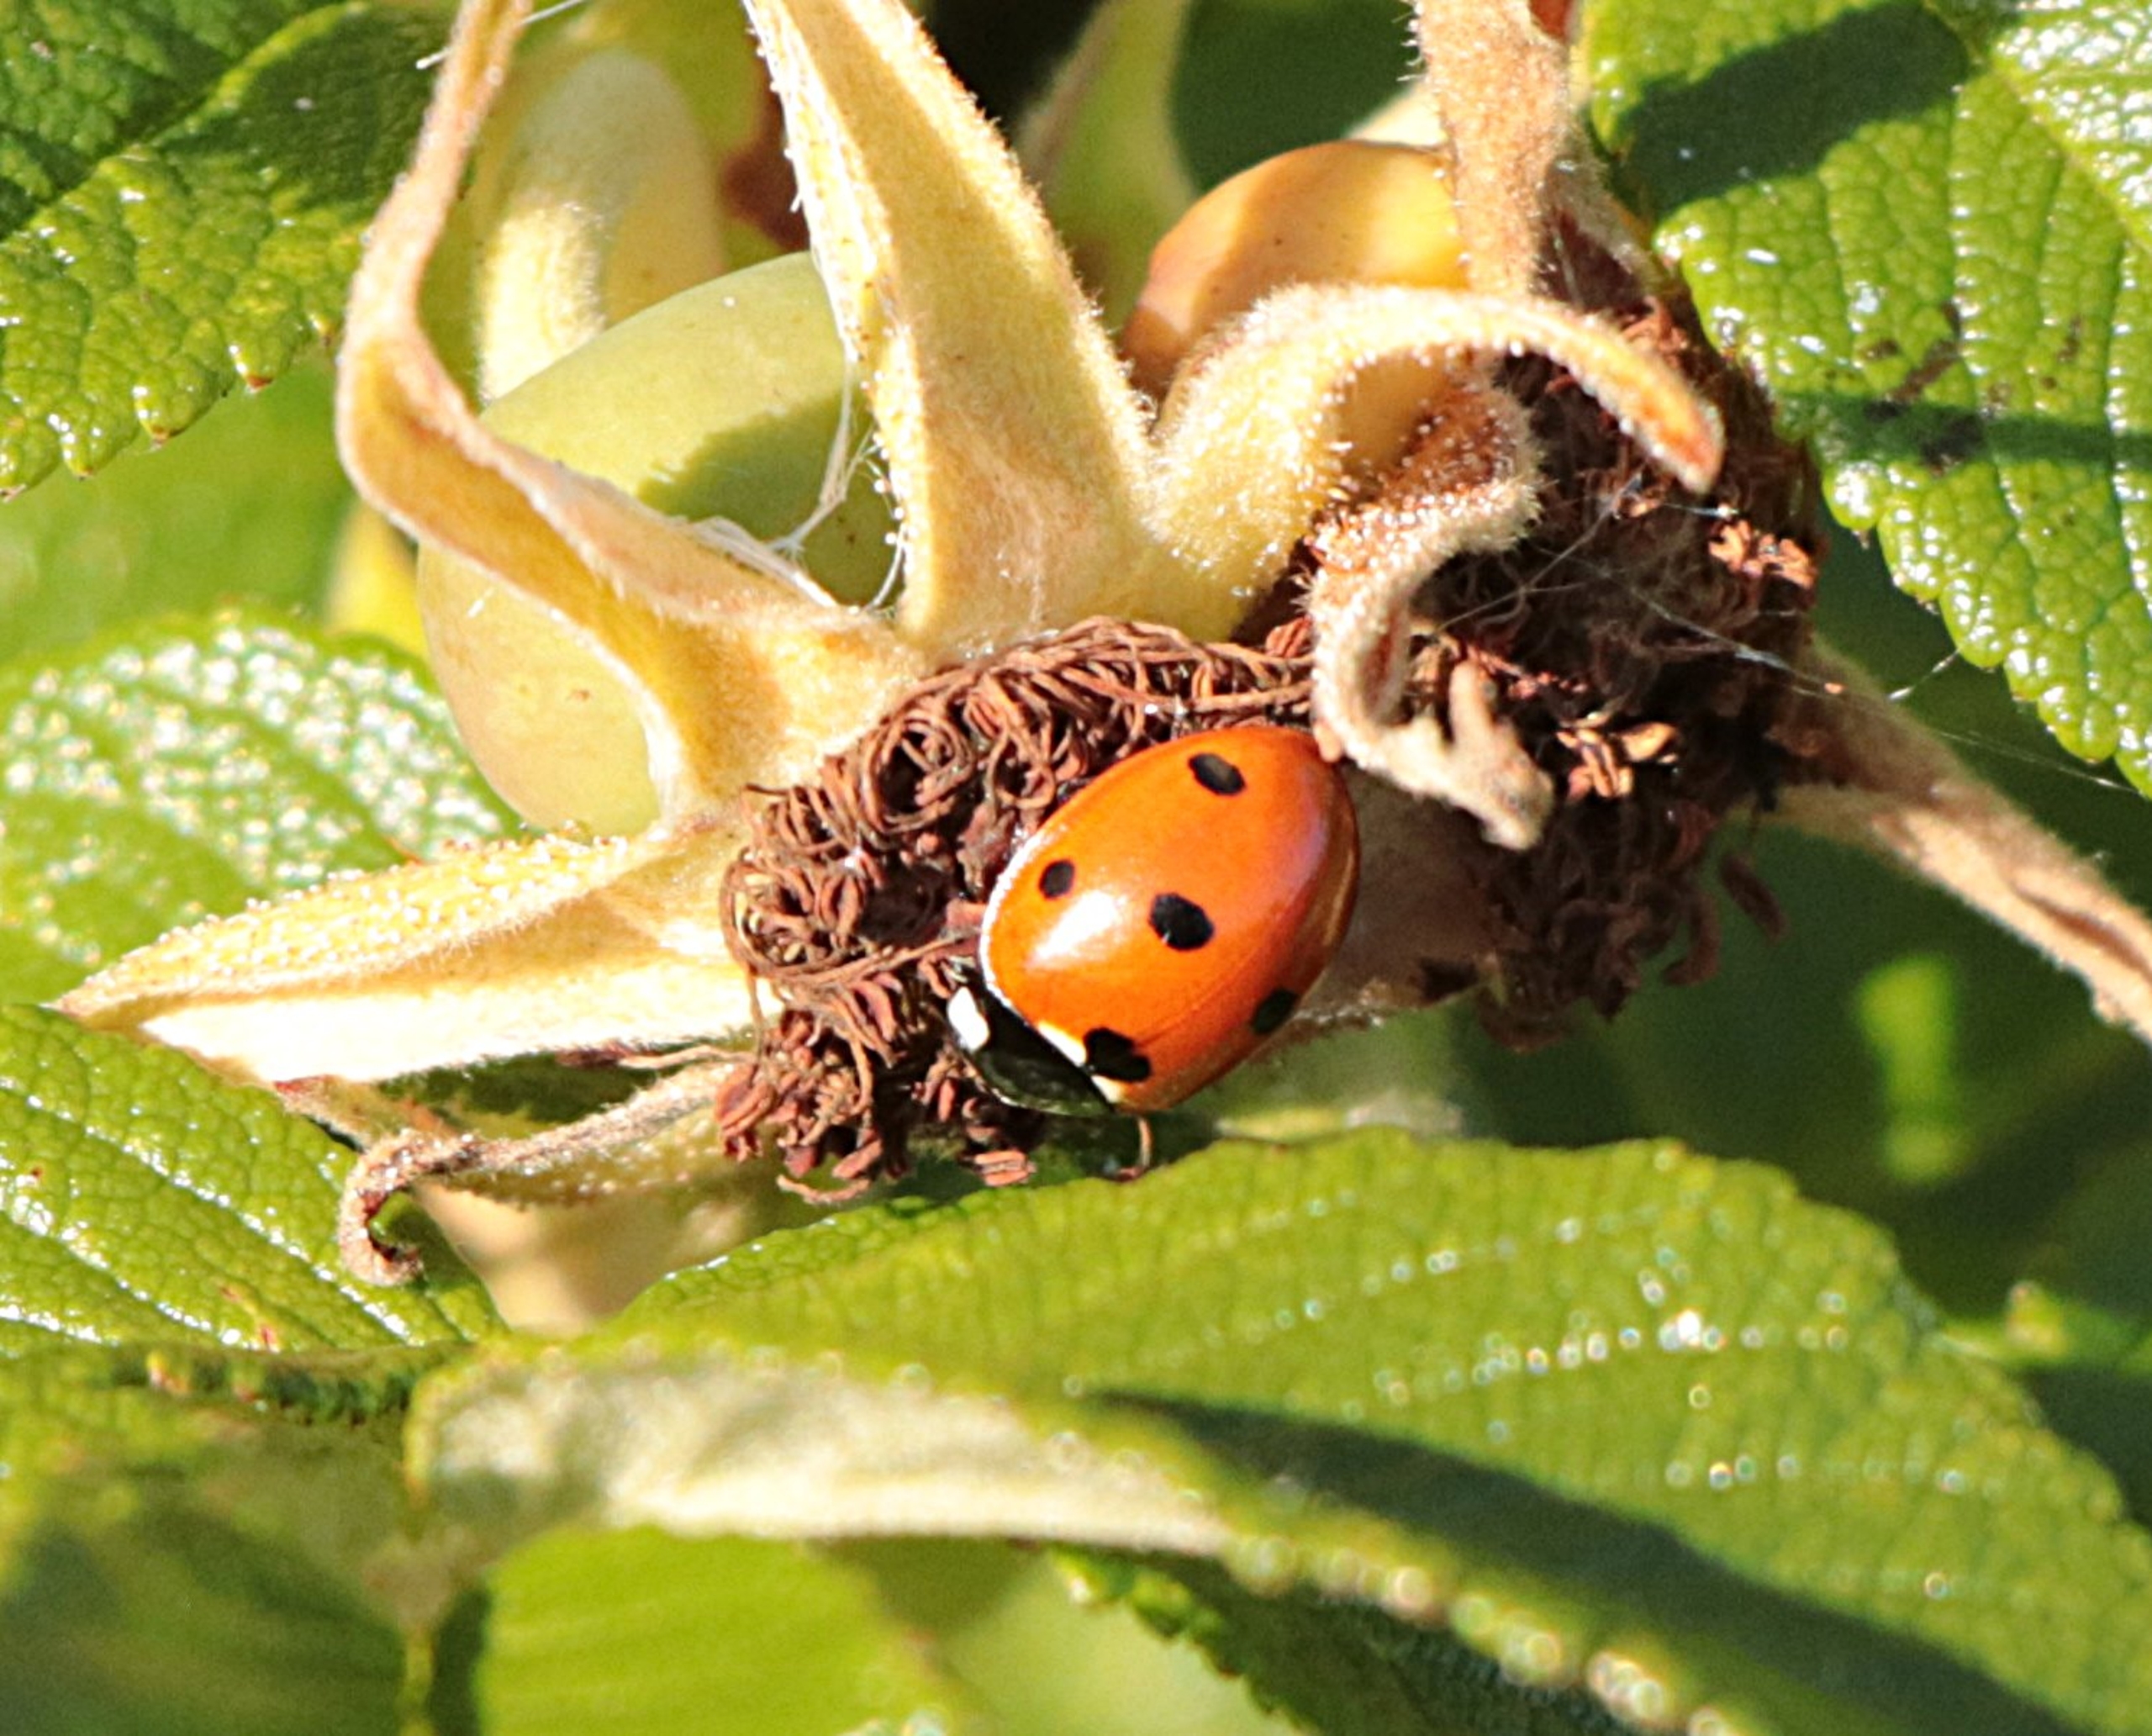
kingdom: Animalia
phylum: Arthropoda
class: Insecta
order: Coleoptera
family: Coccinellidae
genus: Coccinella
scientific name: Coccinella septempunctata
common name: Syvplettet mariehøne
